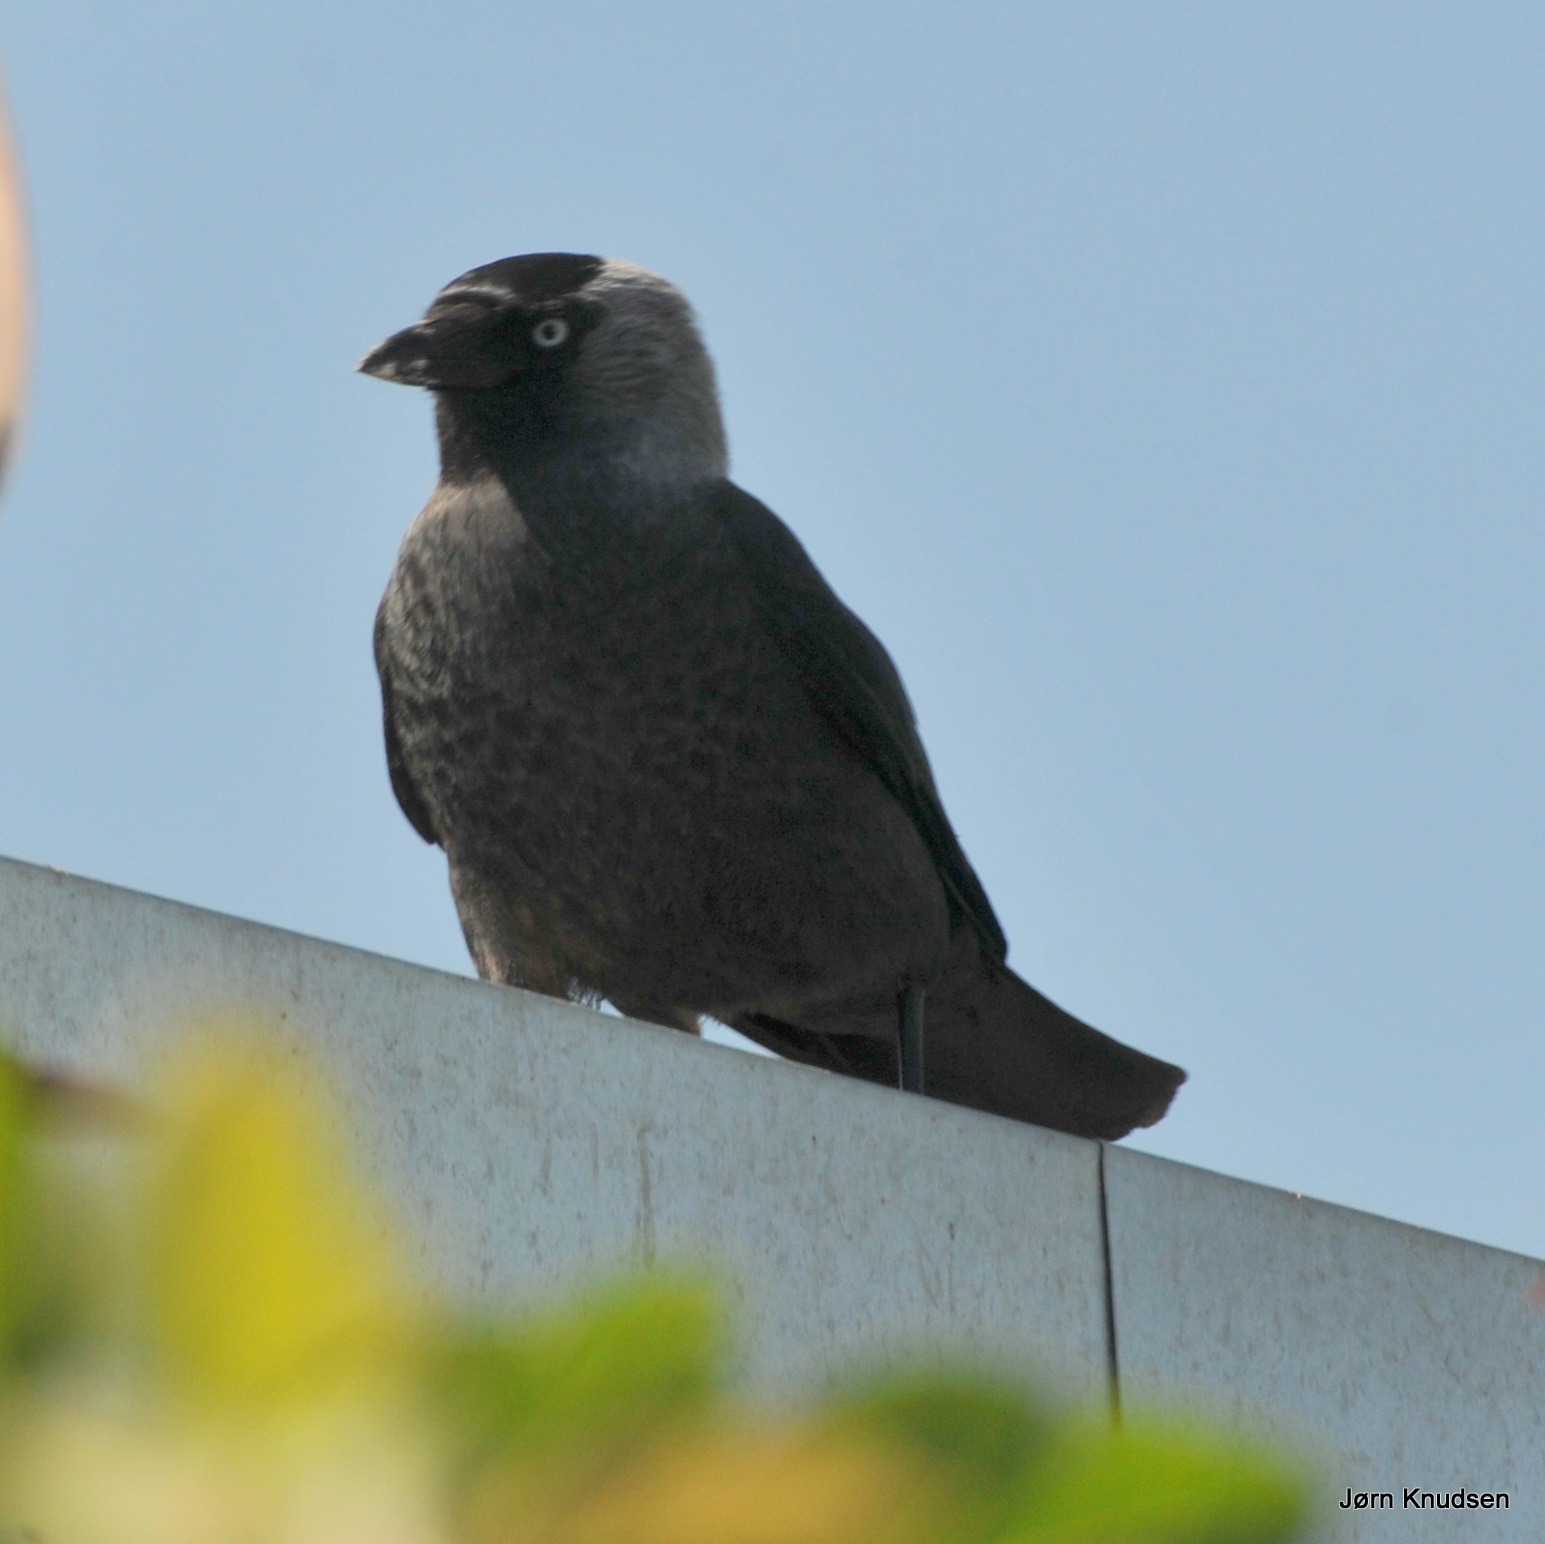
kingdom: Animalia
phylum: Chordata
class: Aves
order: Passeriformes
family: Corvidae
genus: Coloeus
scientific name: Coloeus monedula
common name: Allike
